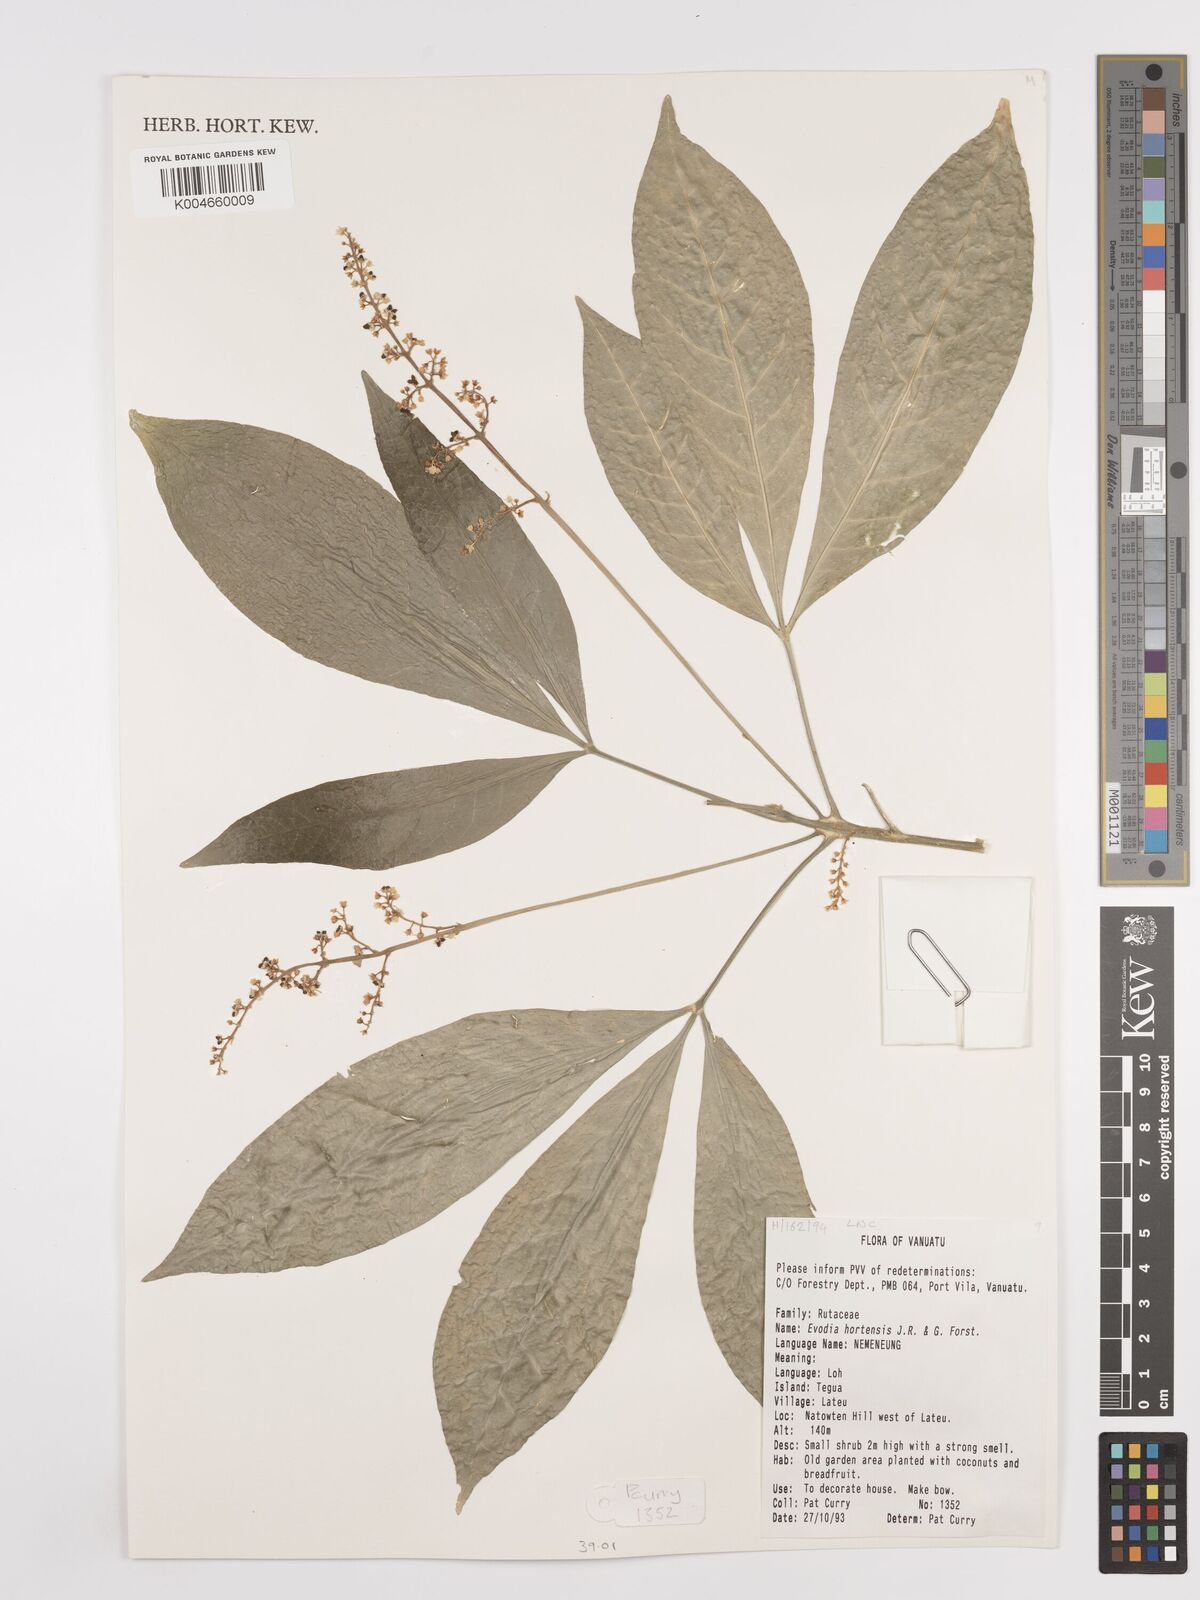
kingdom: Plantae
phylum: Tracheophyta
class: Magnoliopsida
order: Sapindales
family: Rutaceae
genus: Euodia
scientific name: Euodia hortensis
